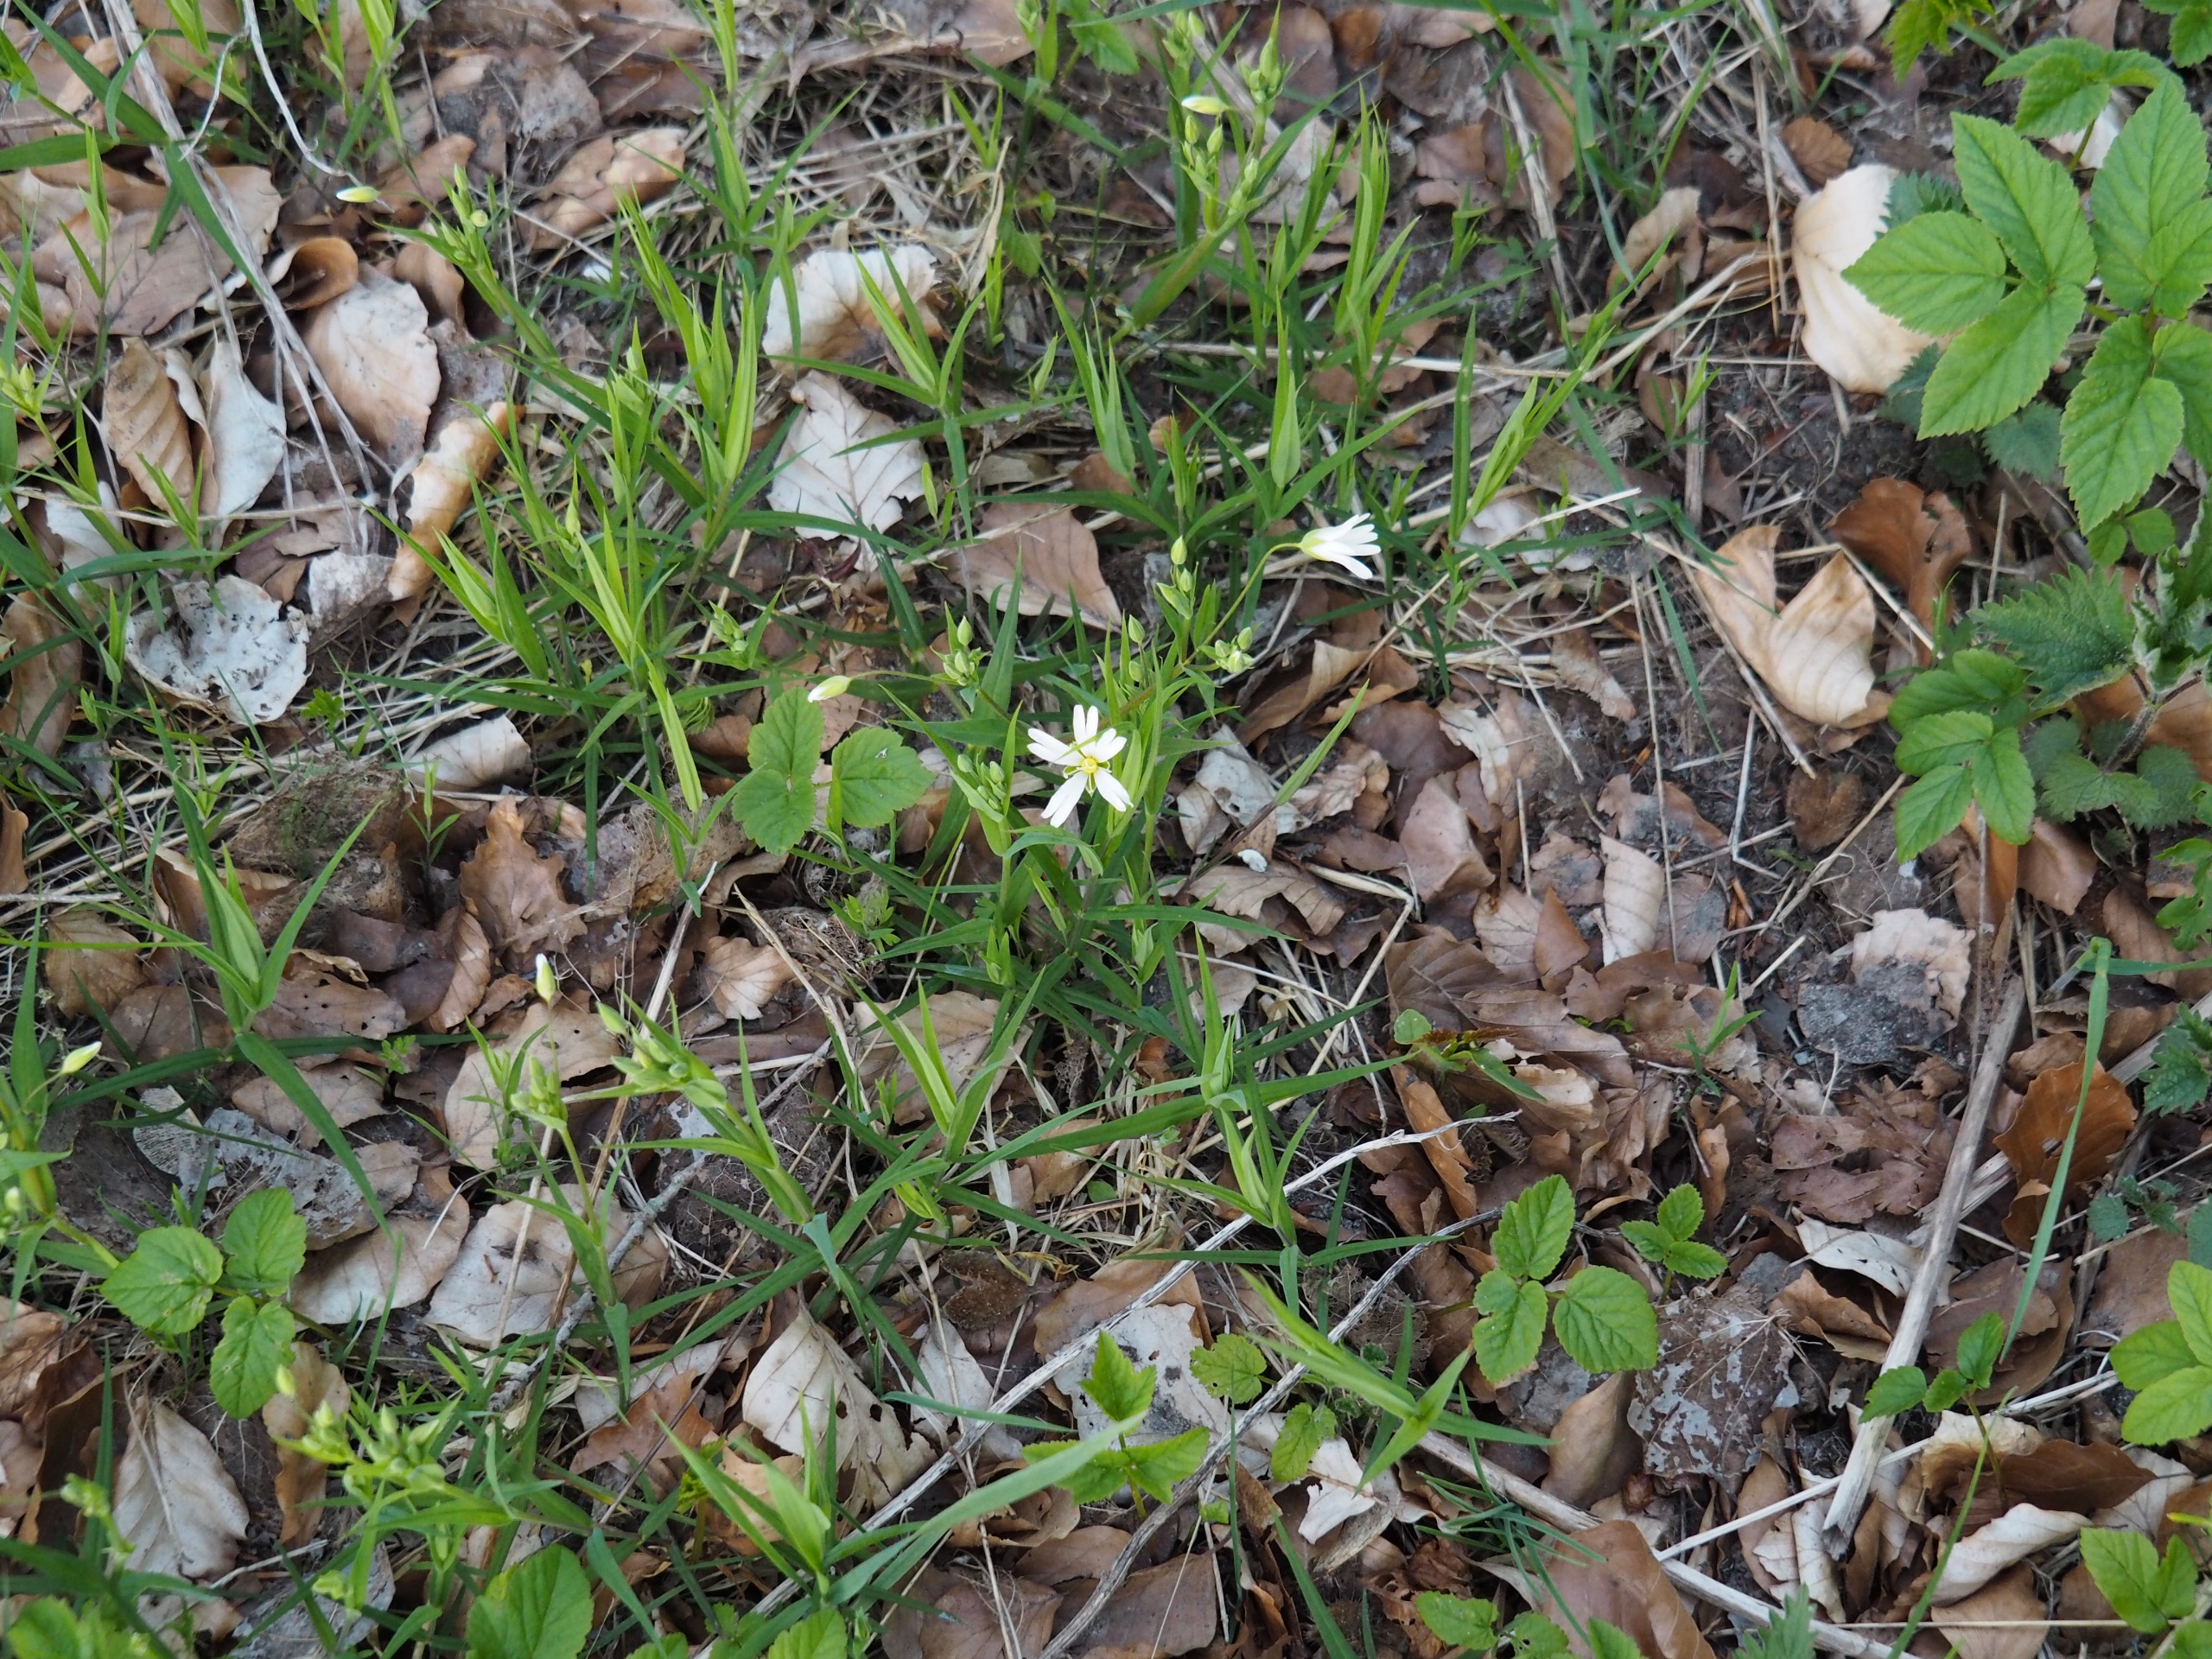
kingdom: Plantae
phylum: Tracheophyta
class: Magnoliopsida
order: Caryophyllales
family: Caryophyllaceae
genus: Rabelera
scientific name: Rabelera holostea
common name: Stor fladstjerne
